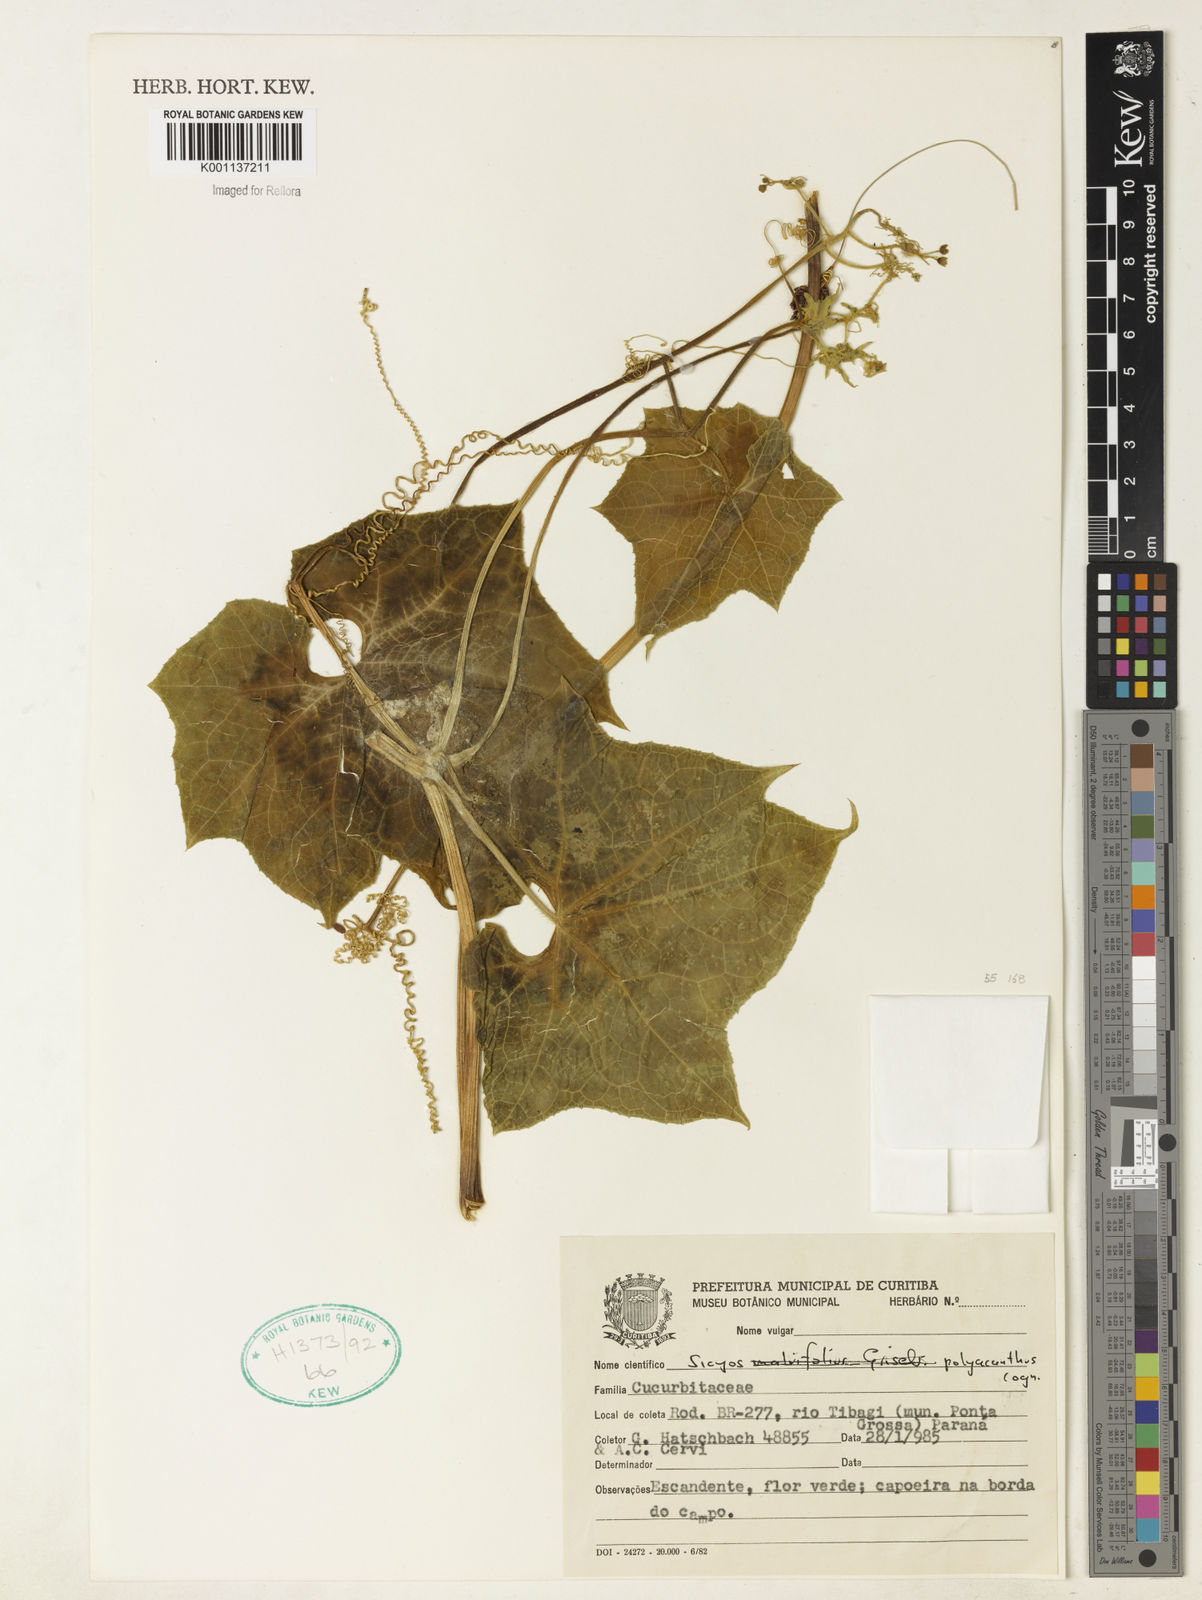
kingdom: Plantae
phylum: Tracheophyta
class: Magnoliopsida
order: Cucurbitales
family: Cucurbitaceae
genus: Sicyos
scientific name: Sicyos polyacanthos
